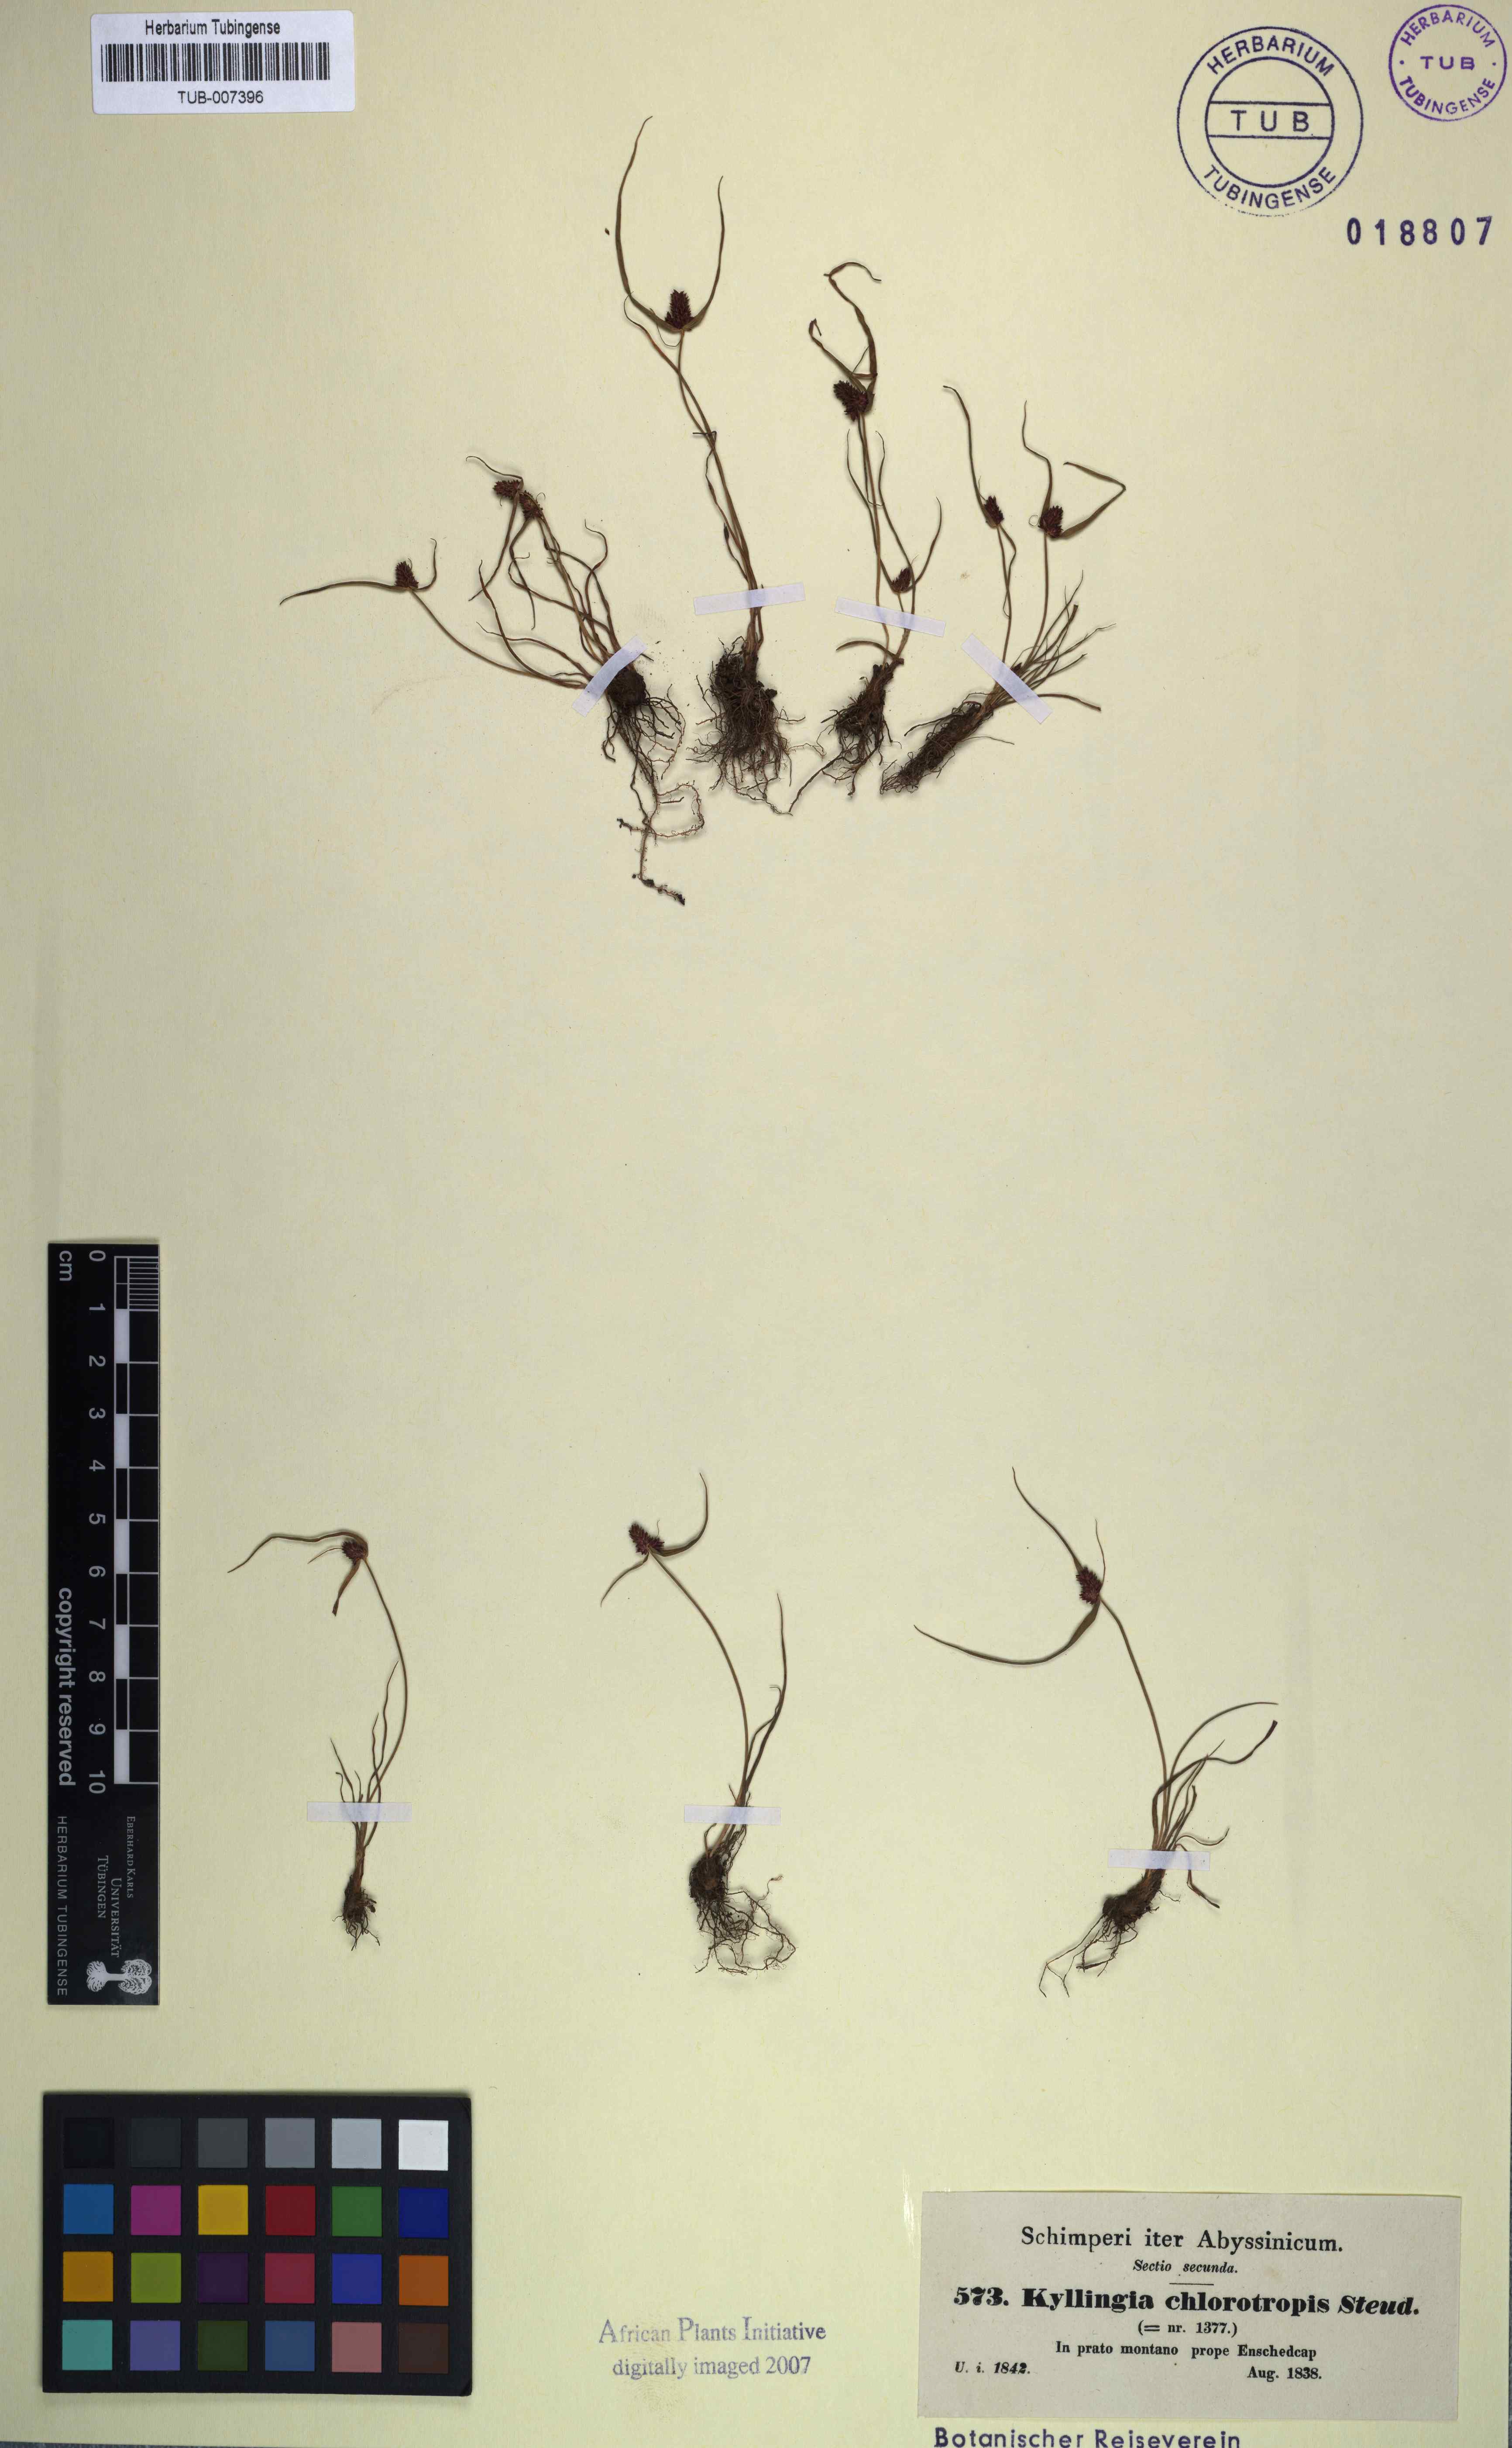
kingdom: Plantae
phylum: Tracheophyta
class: Liliopsida
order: Poales
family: Cyperaceae
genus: Cyperus
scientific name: Cyperus chlorotropis
